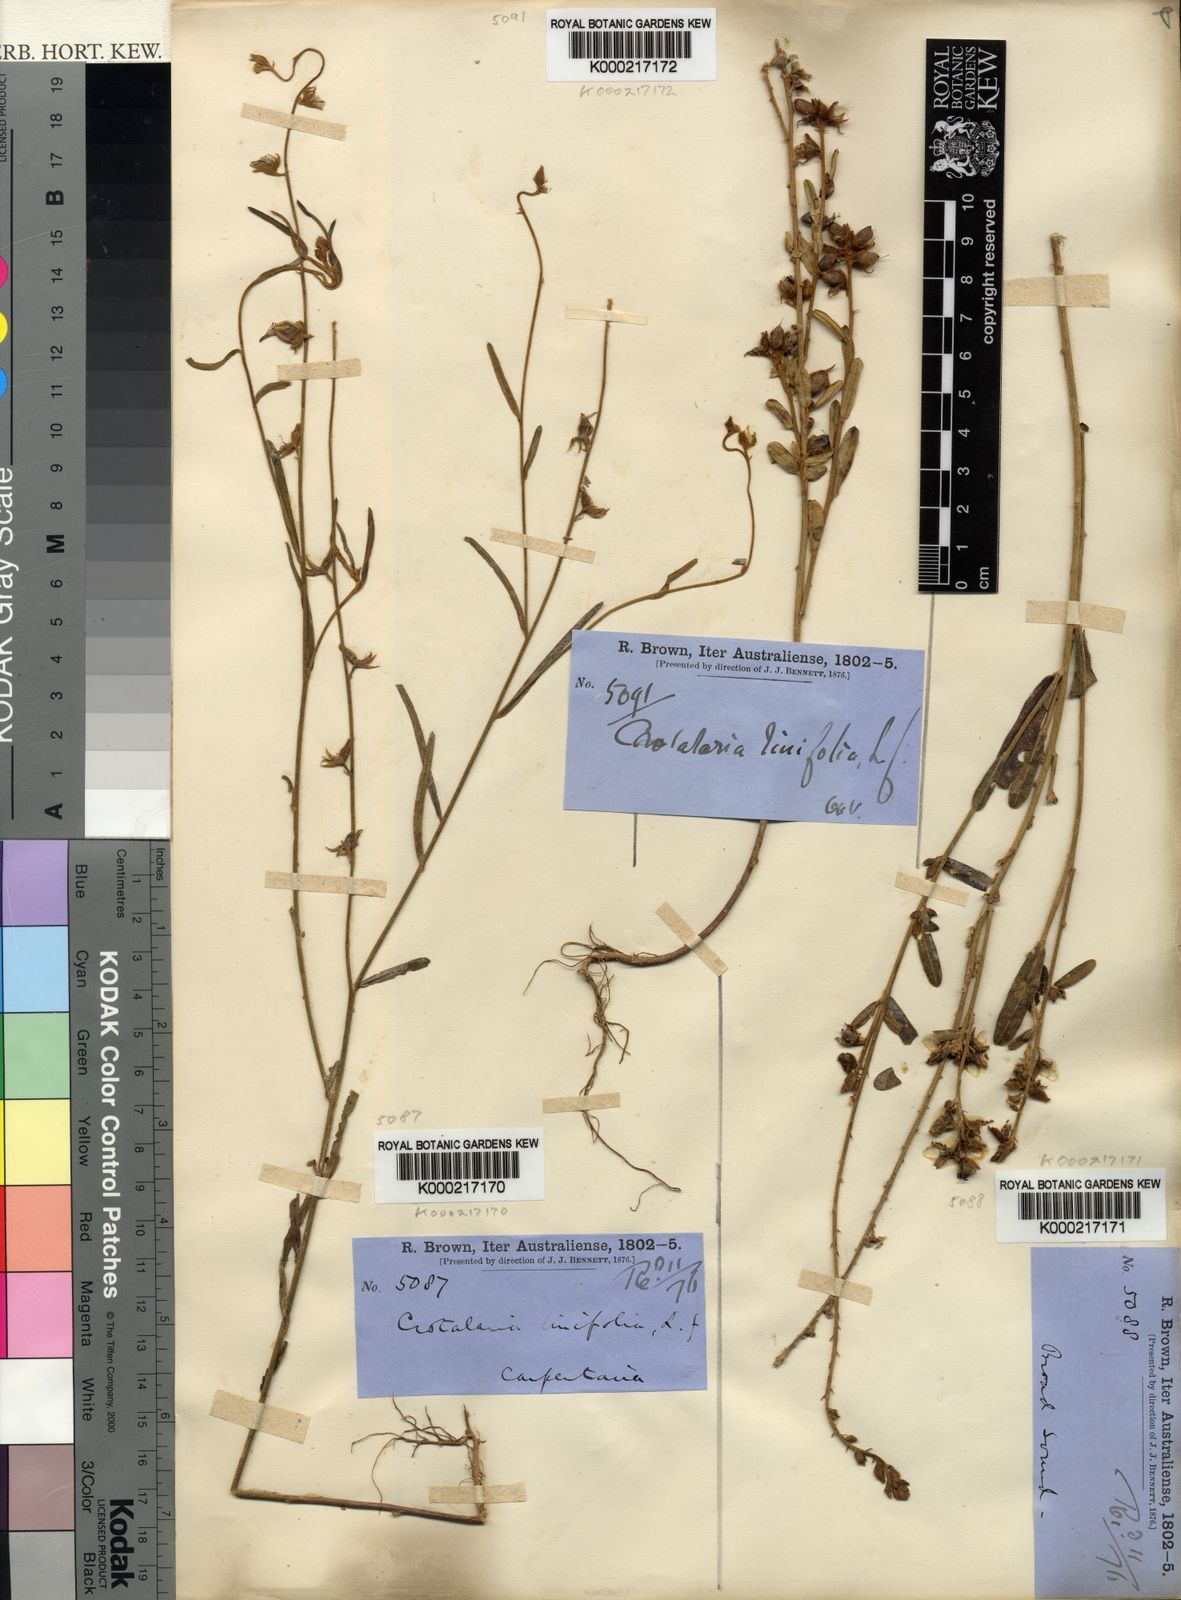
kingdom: Plantae
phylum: Tracheophyta
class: Magnoliopsida
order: Fabales
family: Fabaceae
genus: Crotalaria
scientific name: Crotalaria linifolia
